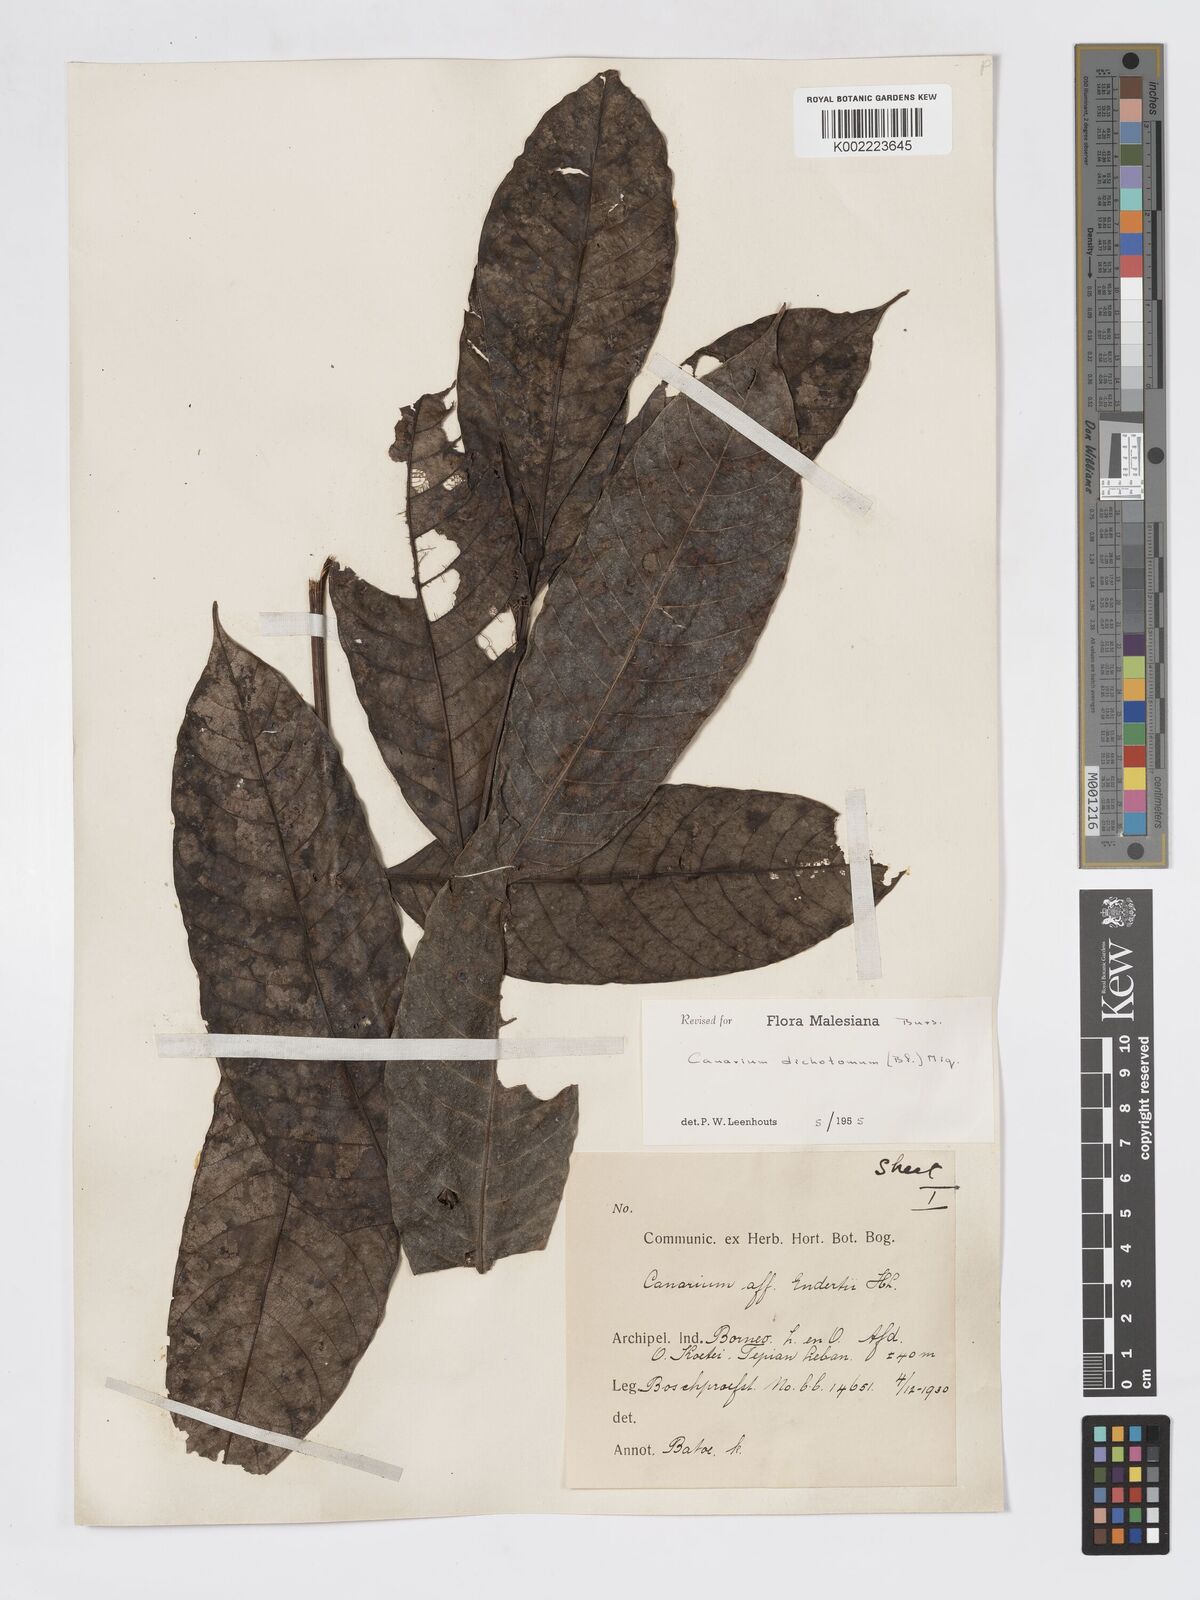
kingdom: Plantae
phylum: Tracheophyta
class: Magnoliopsida
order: Sapindales
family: Burseraceae
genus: Canarium
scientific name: Canarium dichotomum
